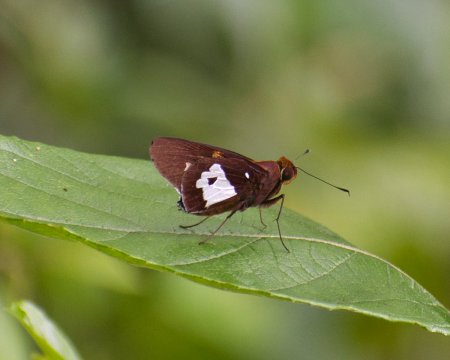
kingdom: Animalia
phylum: Arthropoda
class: Insecta
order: Lepidoptera
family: Hesperiidae
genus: Aides
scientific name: Aides dysoni
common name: Dyson's Silverpatch
